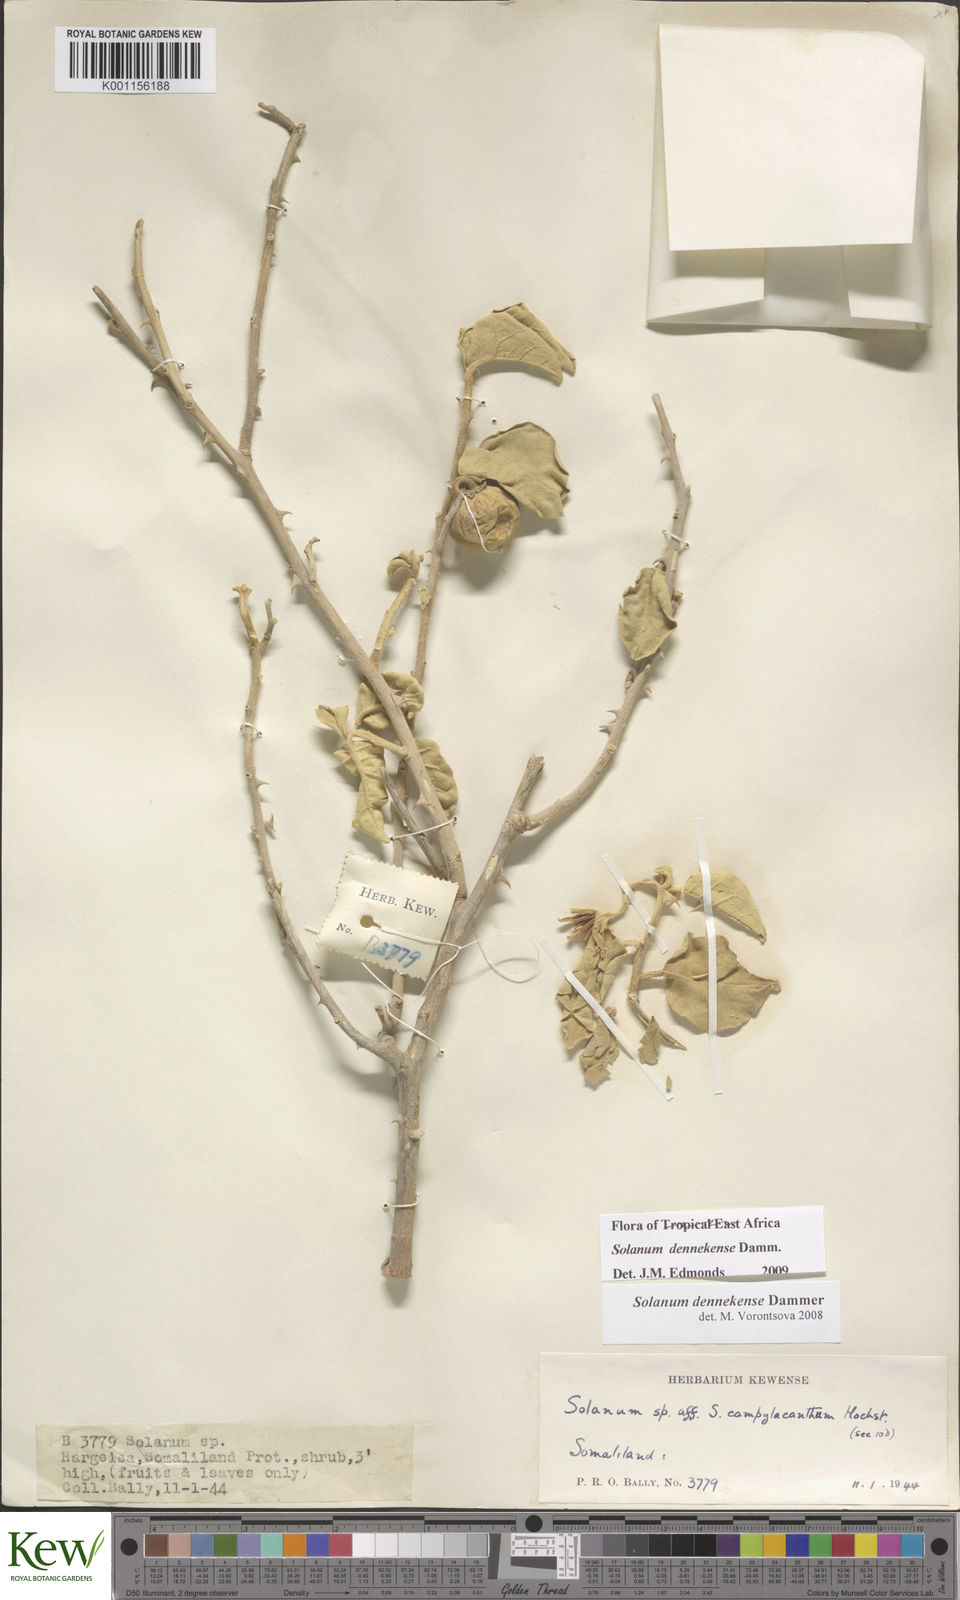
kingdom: Plantae
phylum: Tracheophyta
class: Magnoliopsida
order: Solanales
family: Solanaceae
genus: Solanum
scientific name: Solanum dennekense
